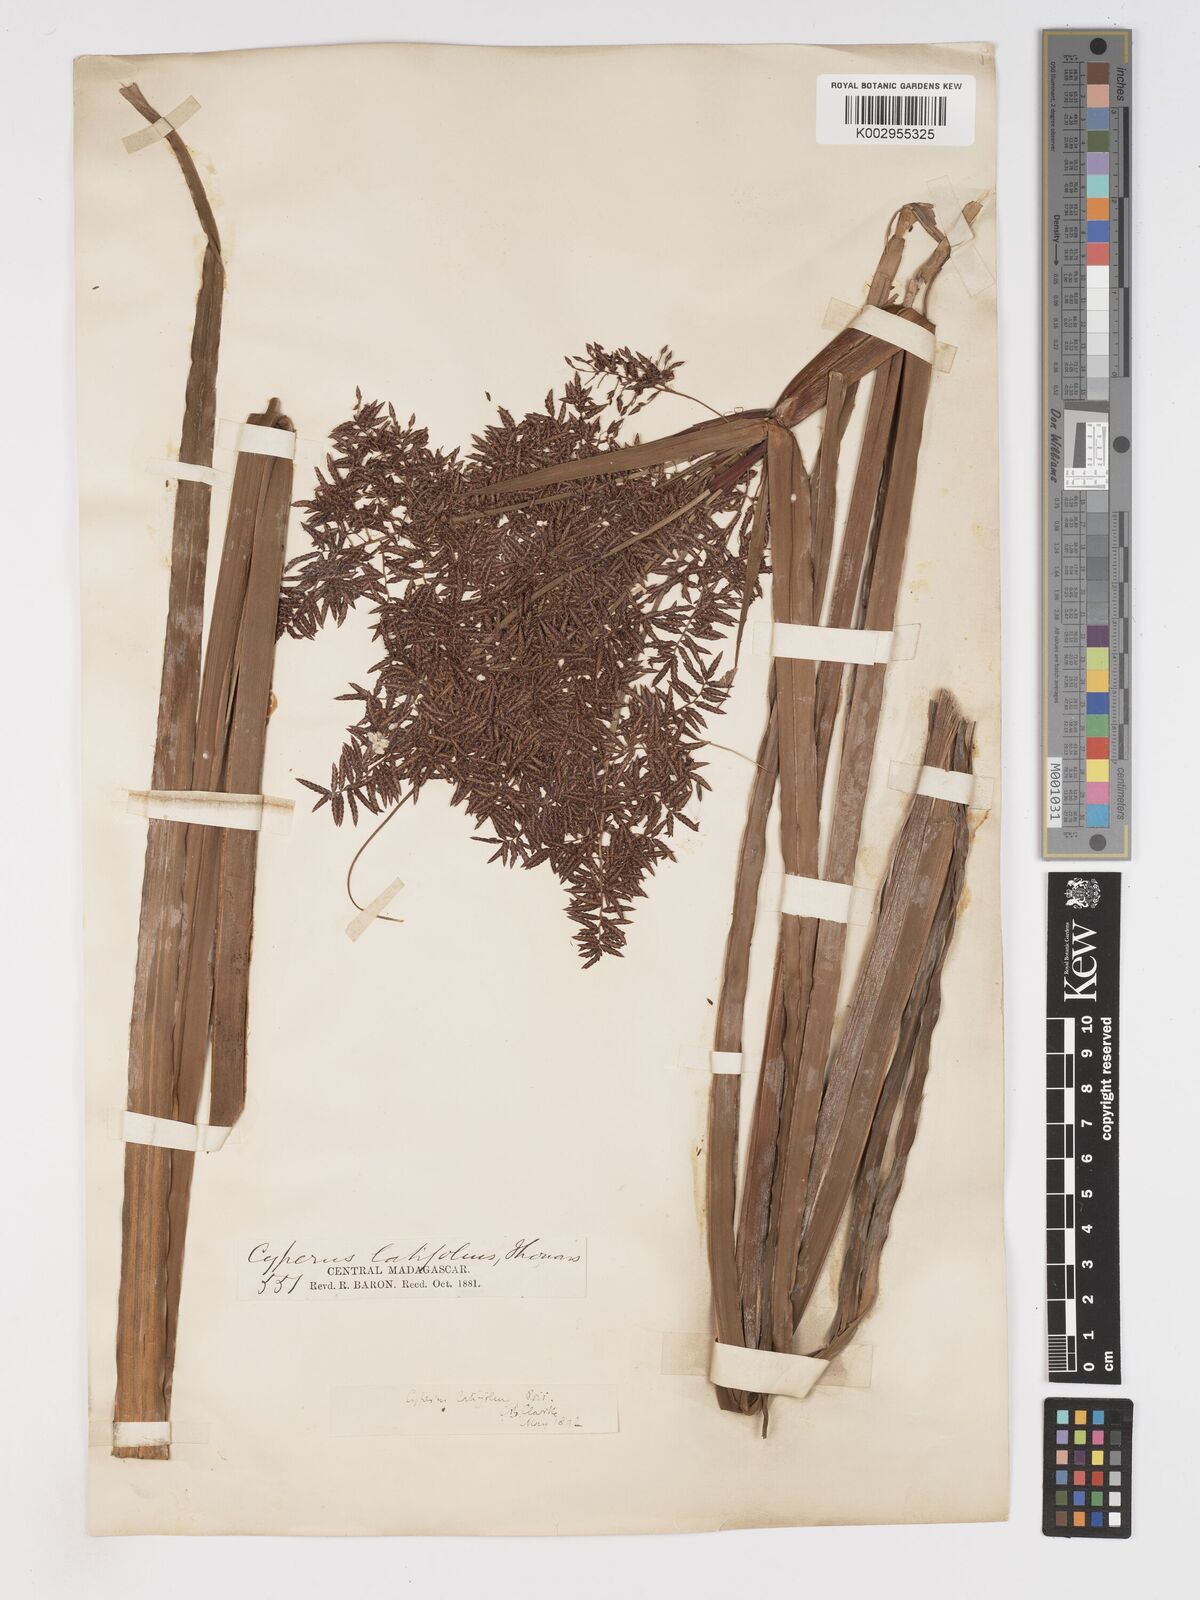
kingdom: Plantae
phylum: Tracheophyta
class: Liliopsida
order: Poales
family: Cyperaceae
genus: Cyperus
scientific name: Cyperus latifolius
